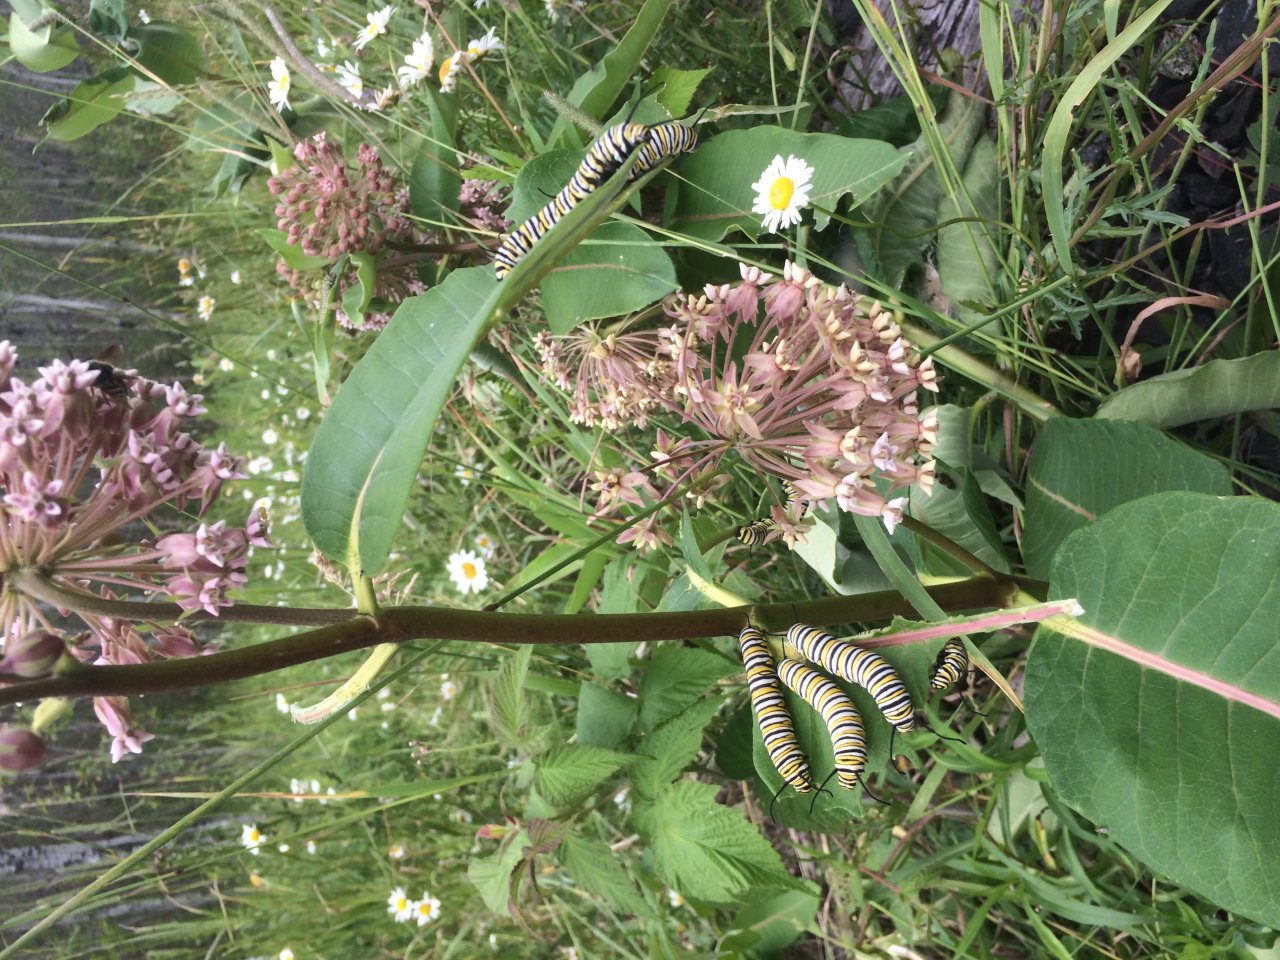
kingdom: Animalia
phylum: Arthropoda
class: Insecta
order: Lepidoptera
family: Nymphalidae
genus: Danaus
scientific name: Danaus plexippus
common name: Monarch
